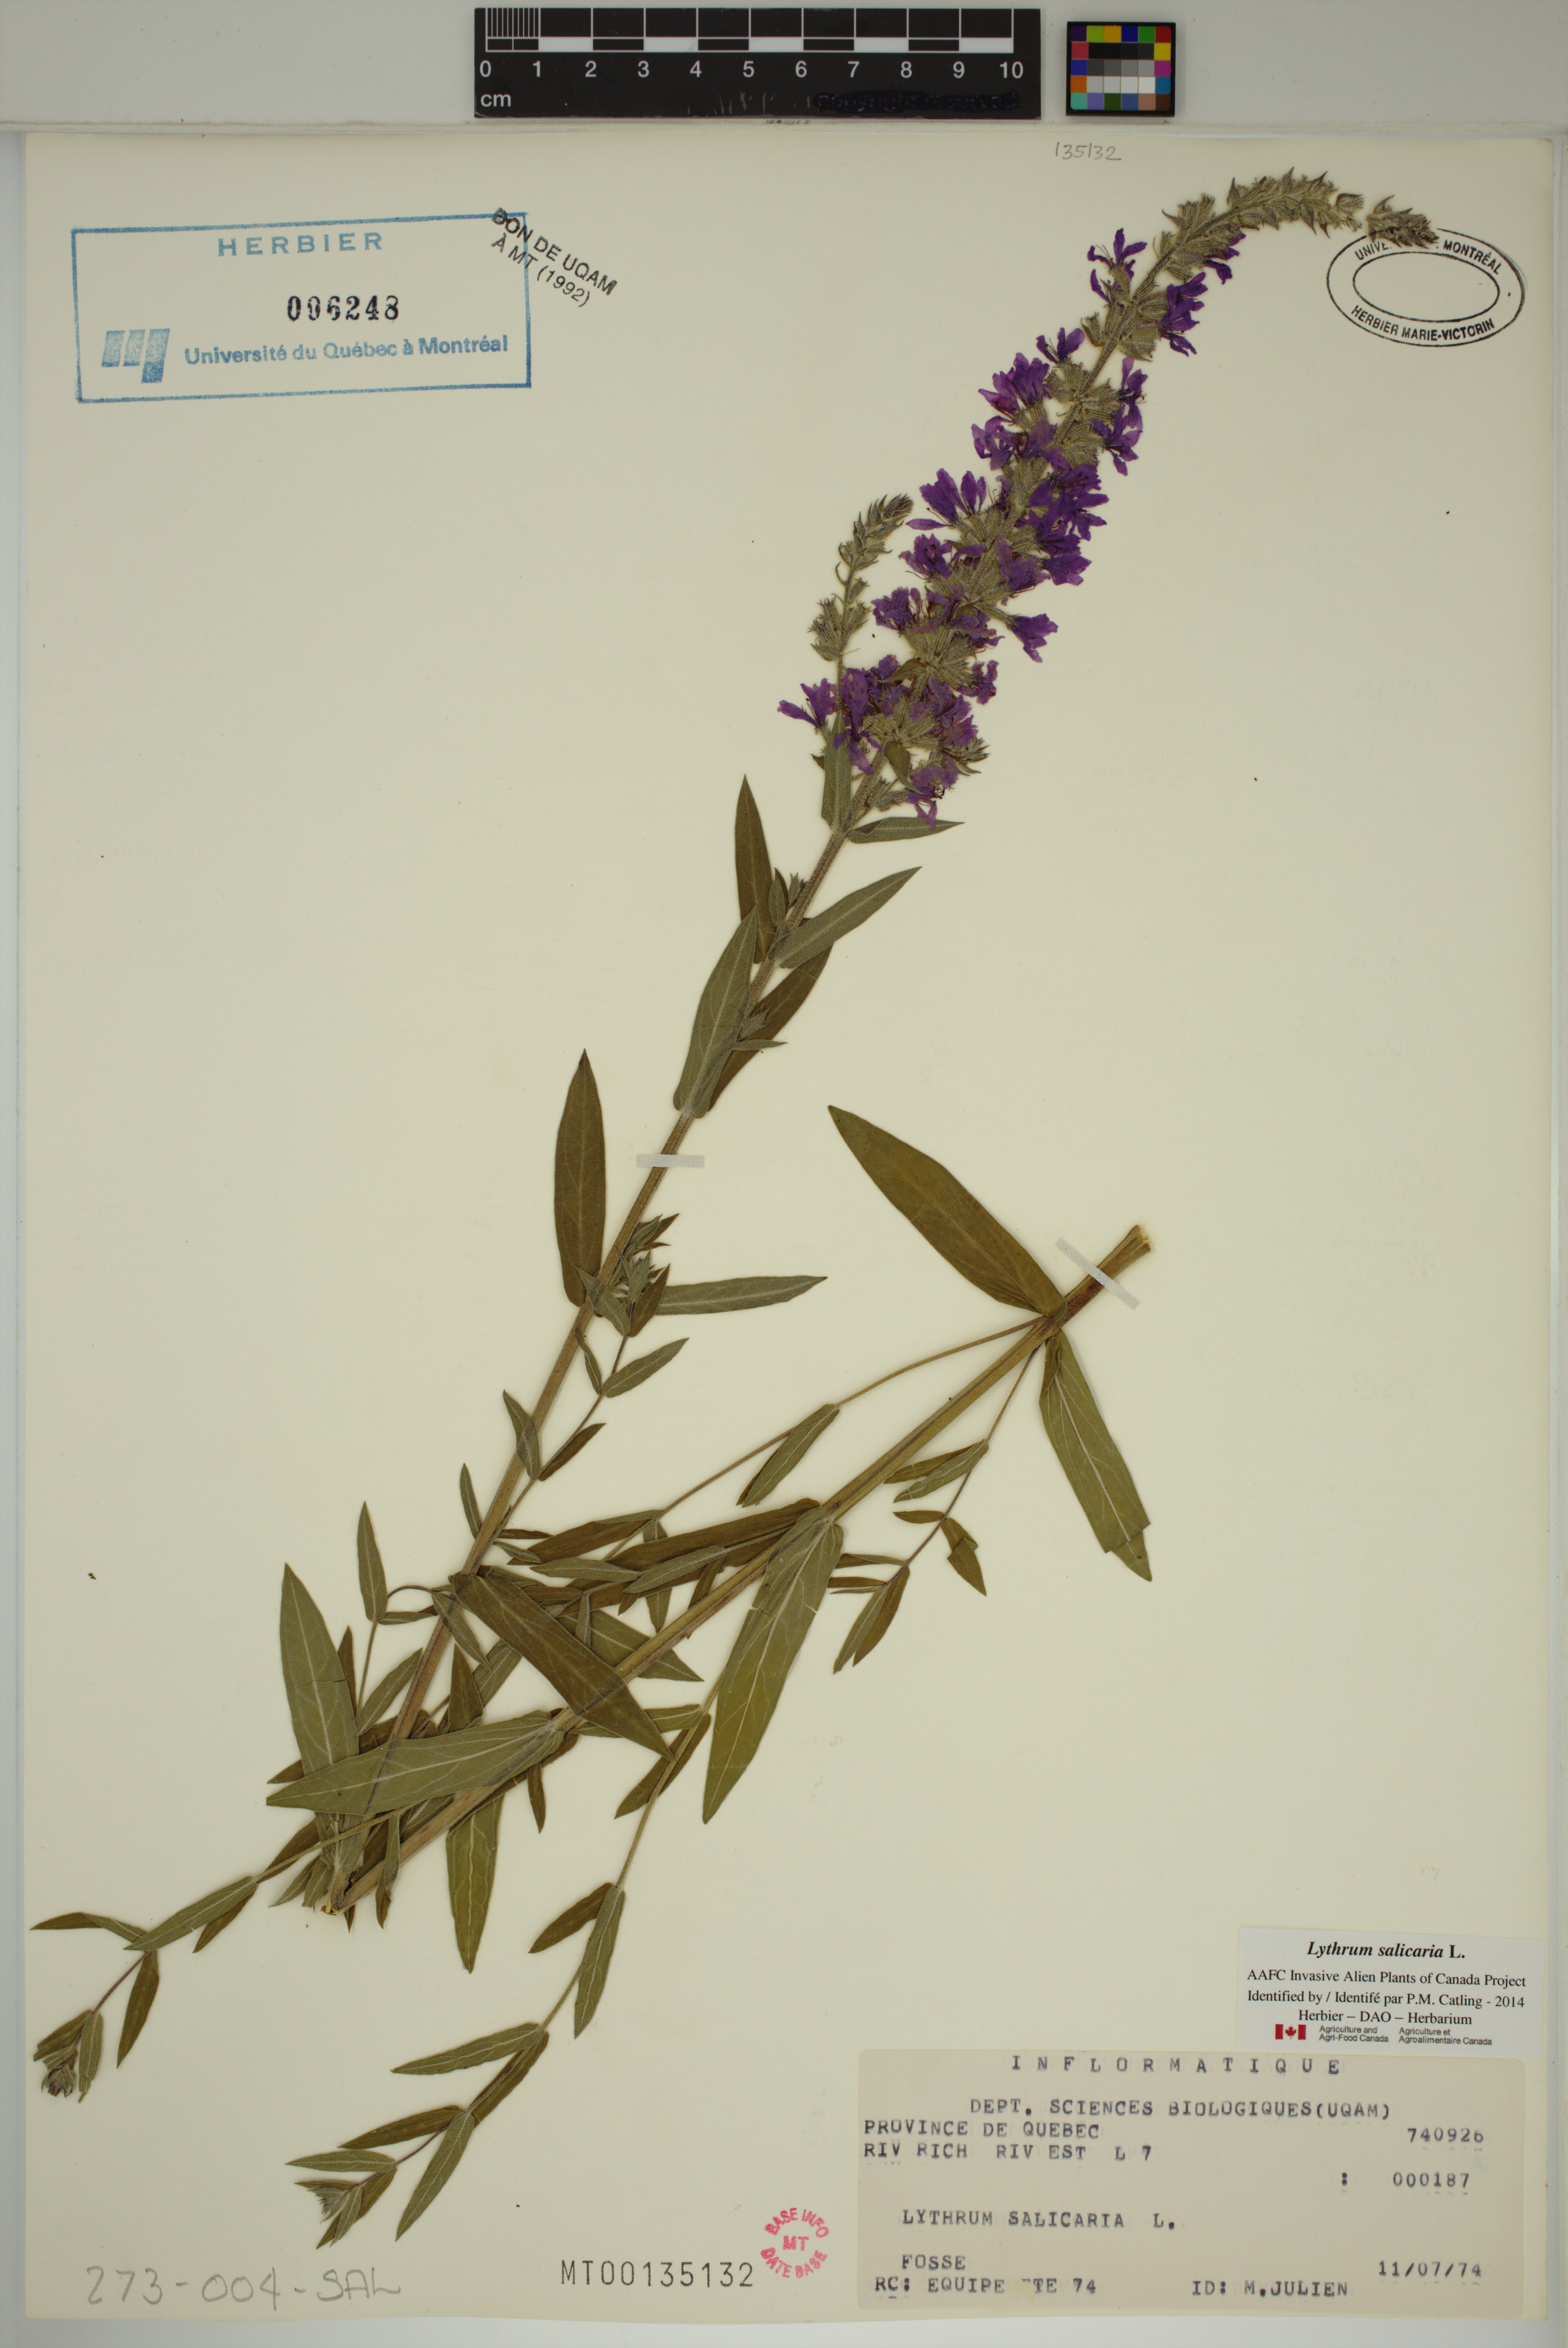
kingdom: Plantae
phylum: Tracheophyta
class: Magnoliopsida
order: Myrtales
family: Lythraceae
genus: Lythrum
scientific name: Lythrum salicaria
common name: Purple loosestrife
